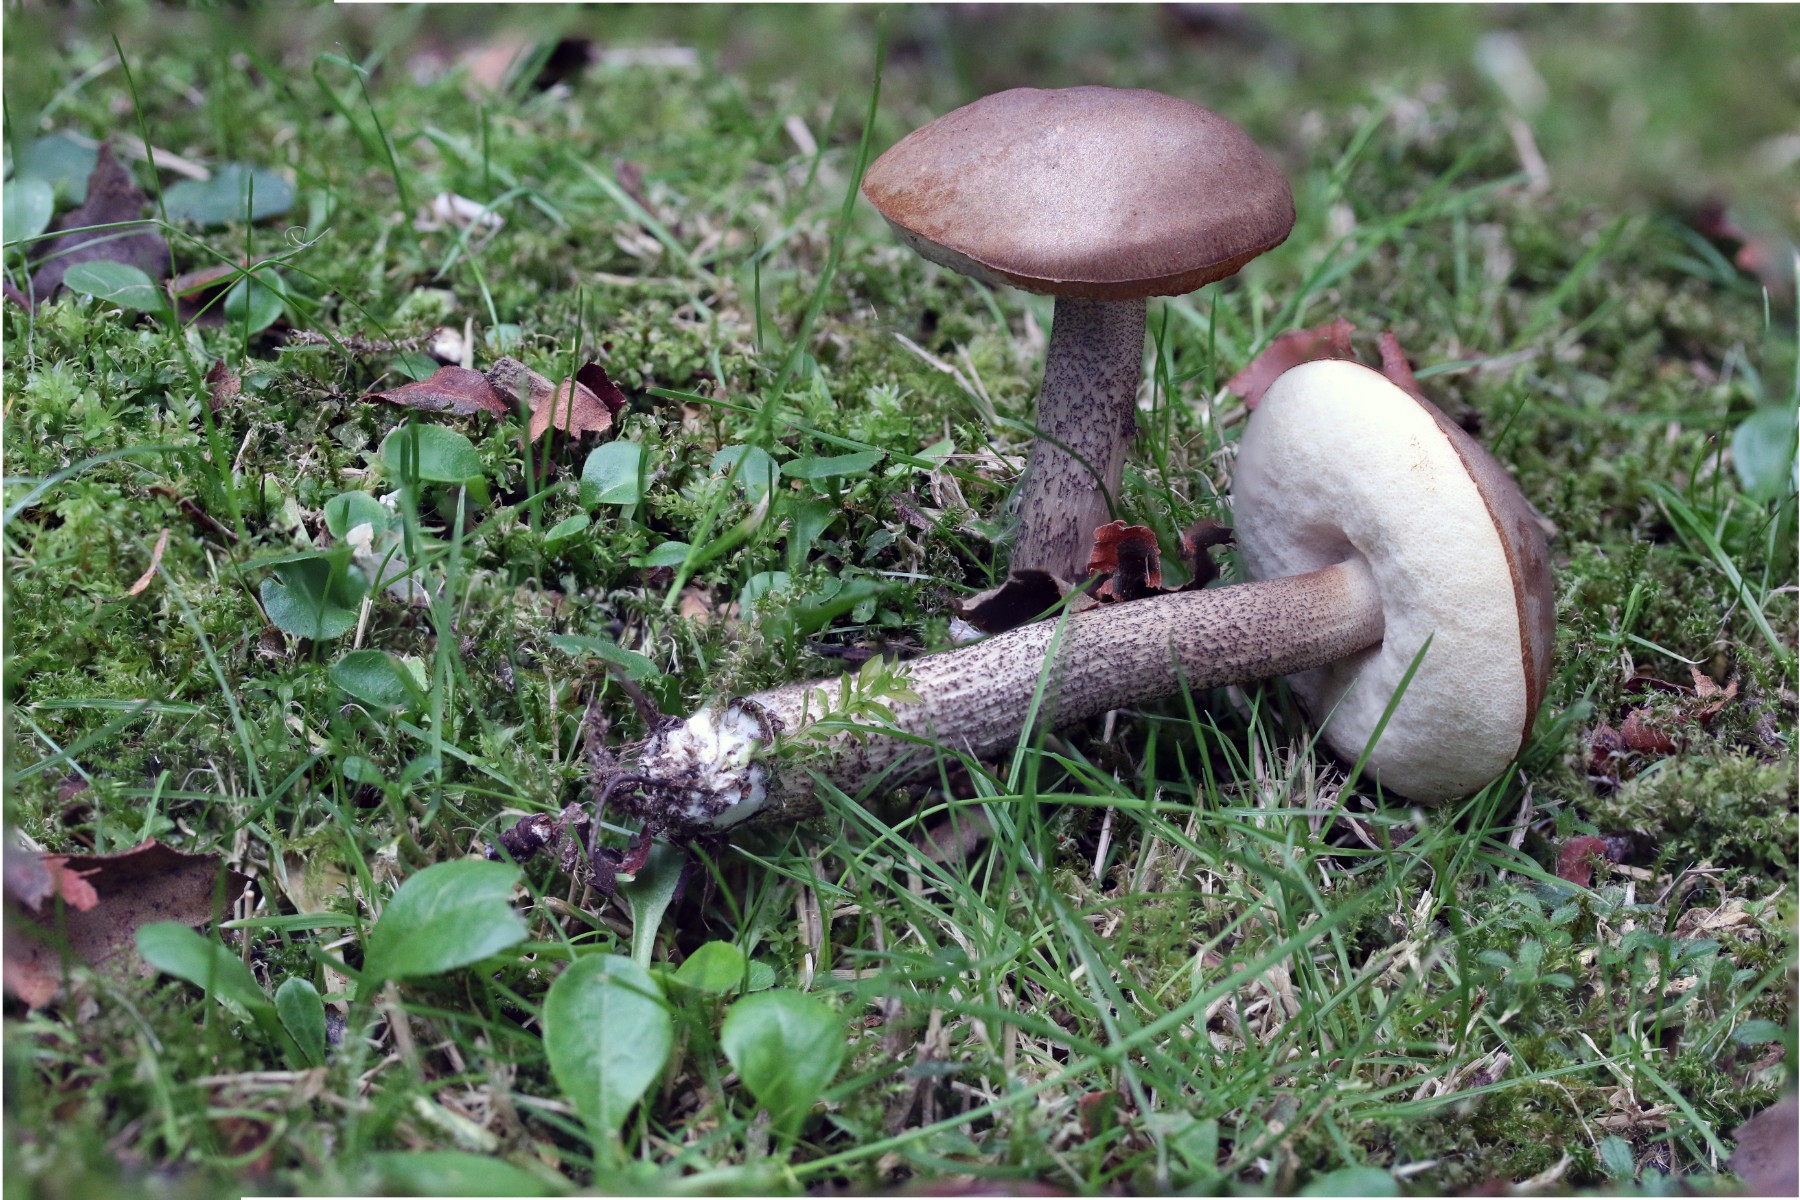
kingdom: Fungi
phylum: Basidiomycota
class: Agaricomycetes
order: Boletales
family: Boletaceae
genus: Leccinum
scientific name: Leccinum schistophilum
